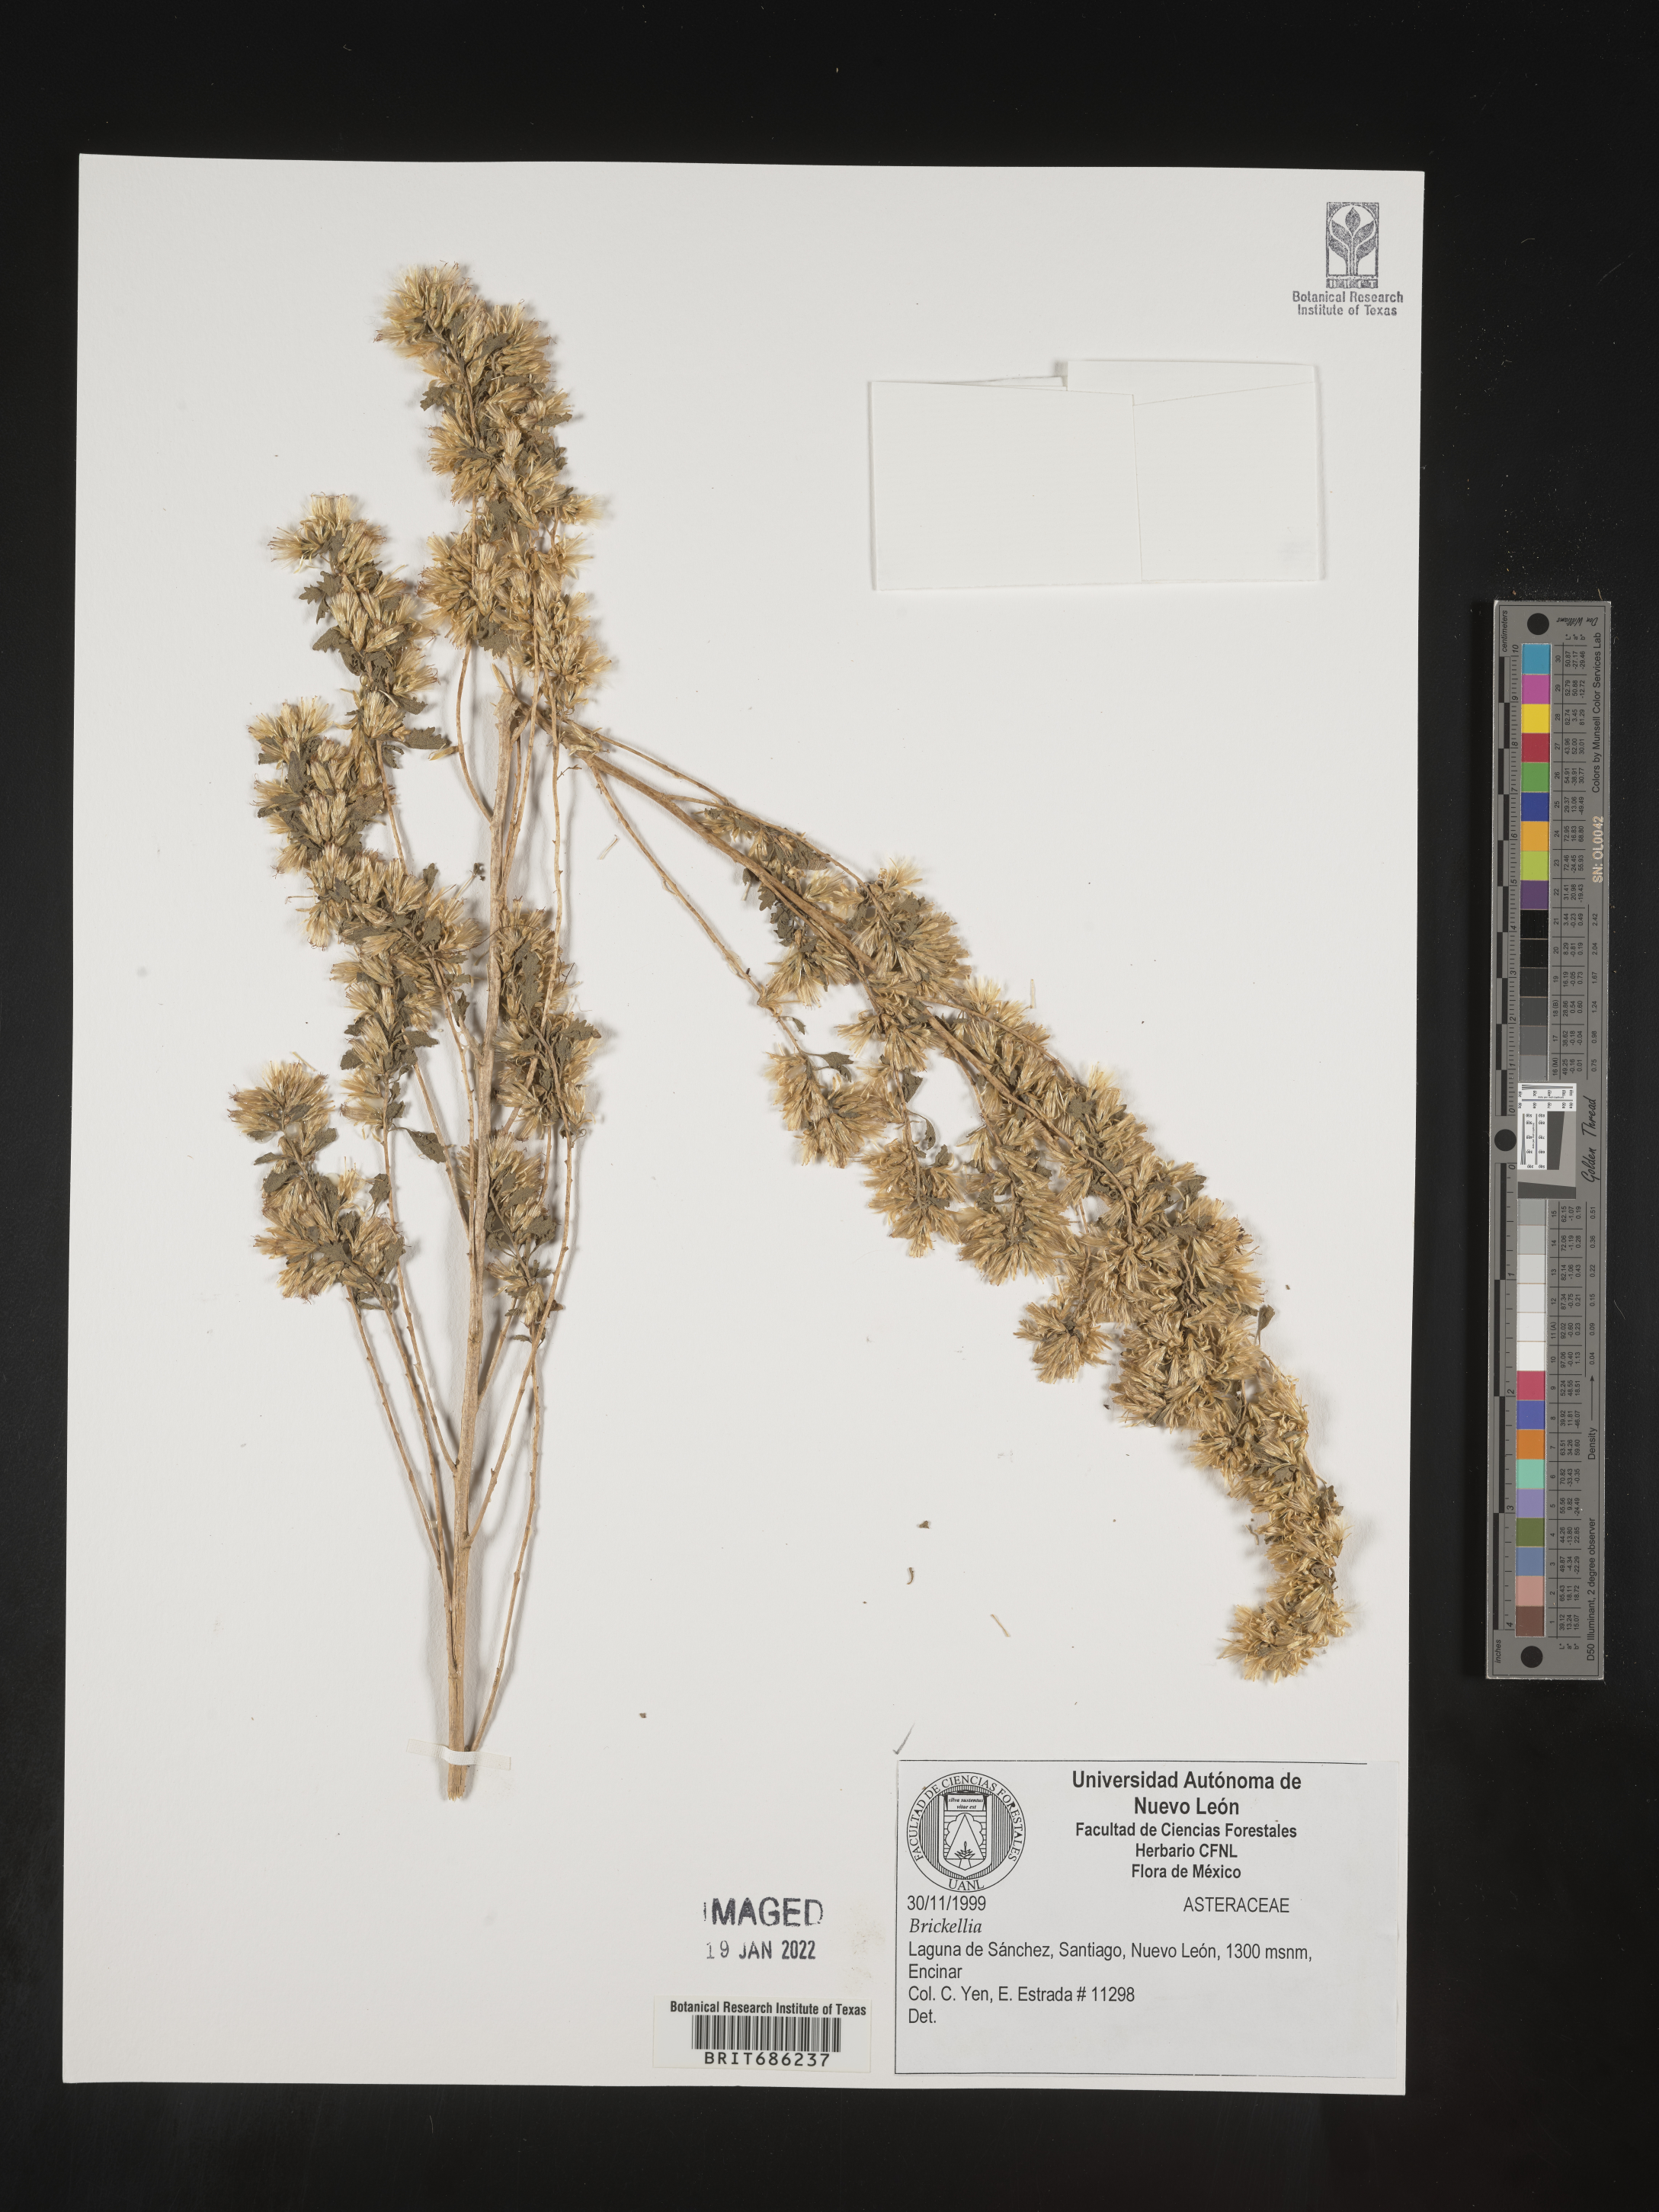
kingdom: Plantae
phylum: Tracheophyta
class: Magnoliopsida
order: Asterales
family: Asteraceae
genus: Brickellia
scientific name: Brickellia
